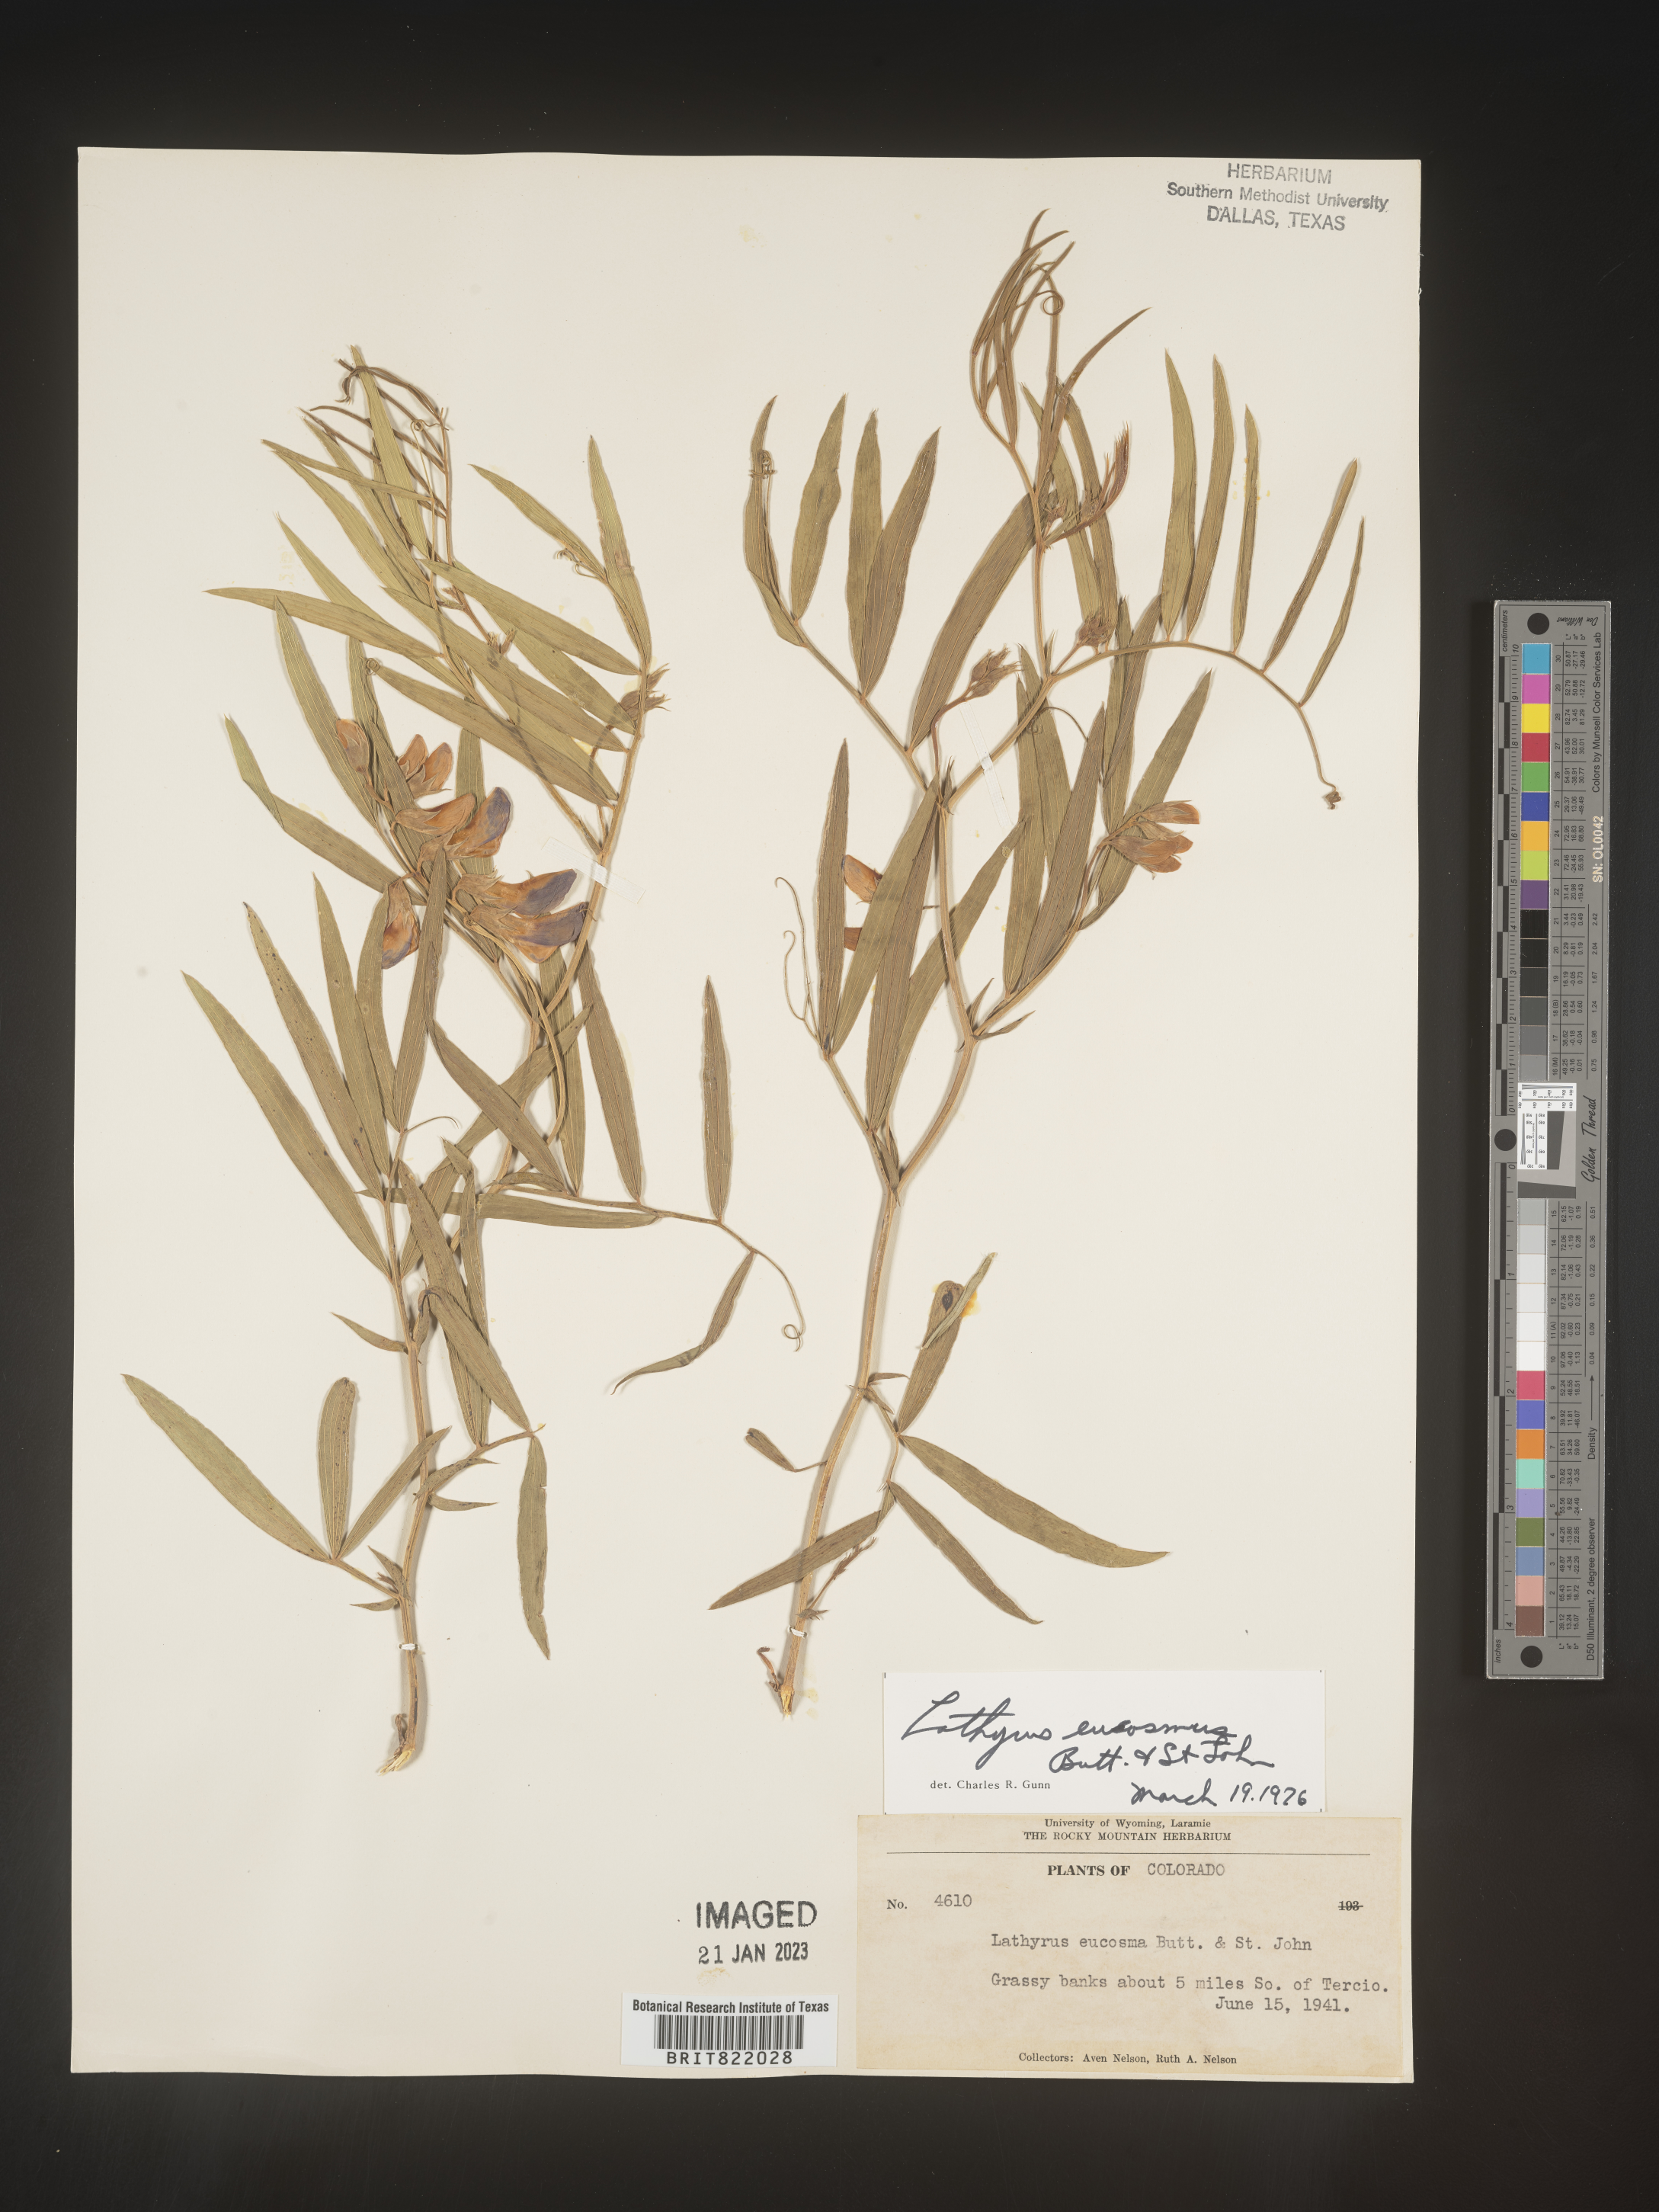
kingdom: Plantae
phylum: Tracheophyta
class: Magnoliopsida
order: Fabales
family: Fabaceae
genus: Lathyrus
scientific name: Lathyrus
